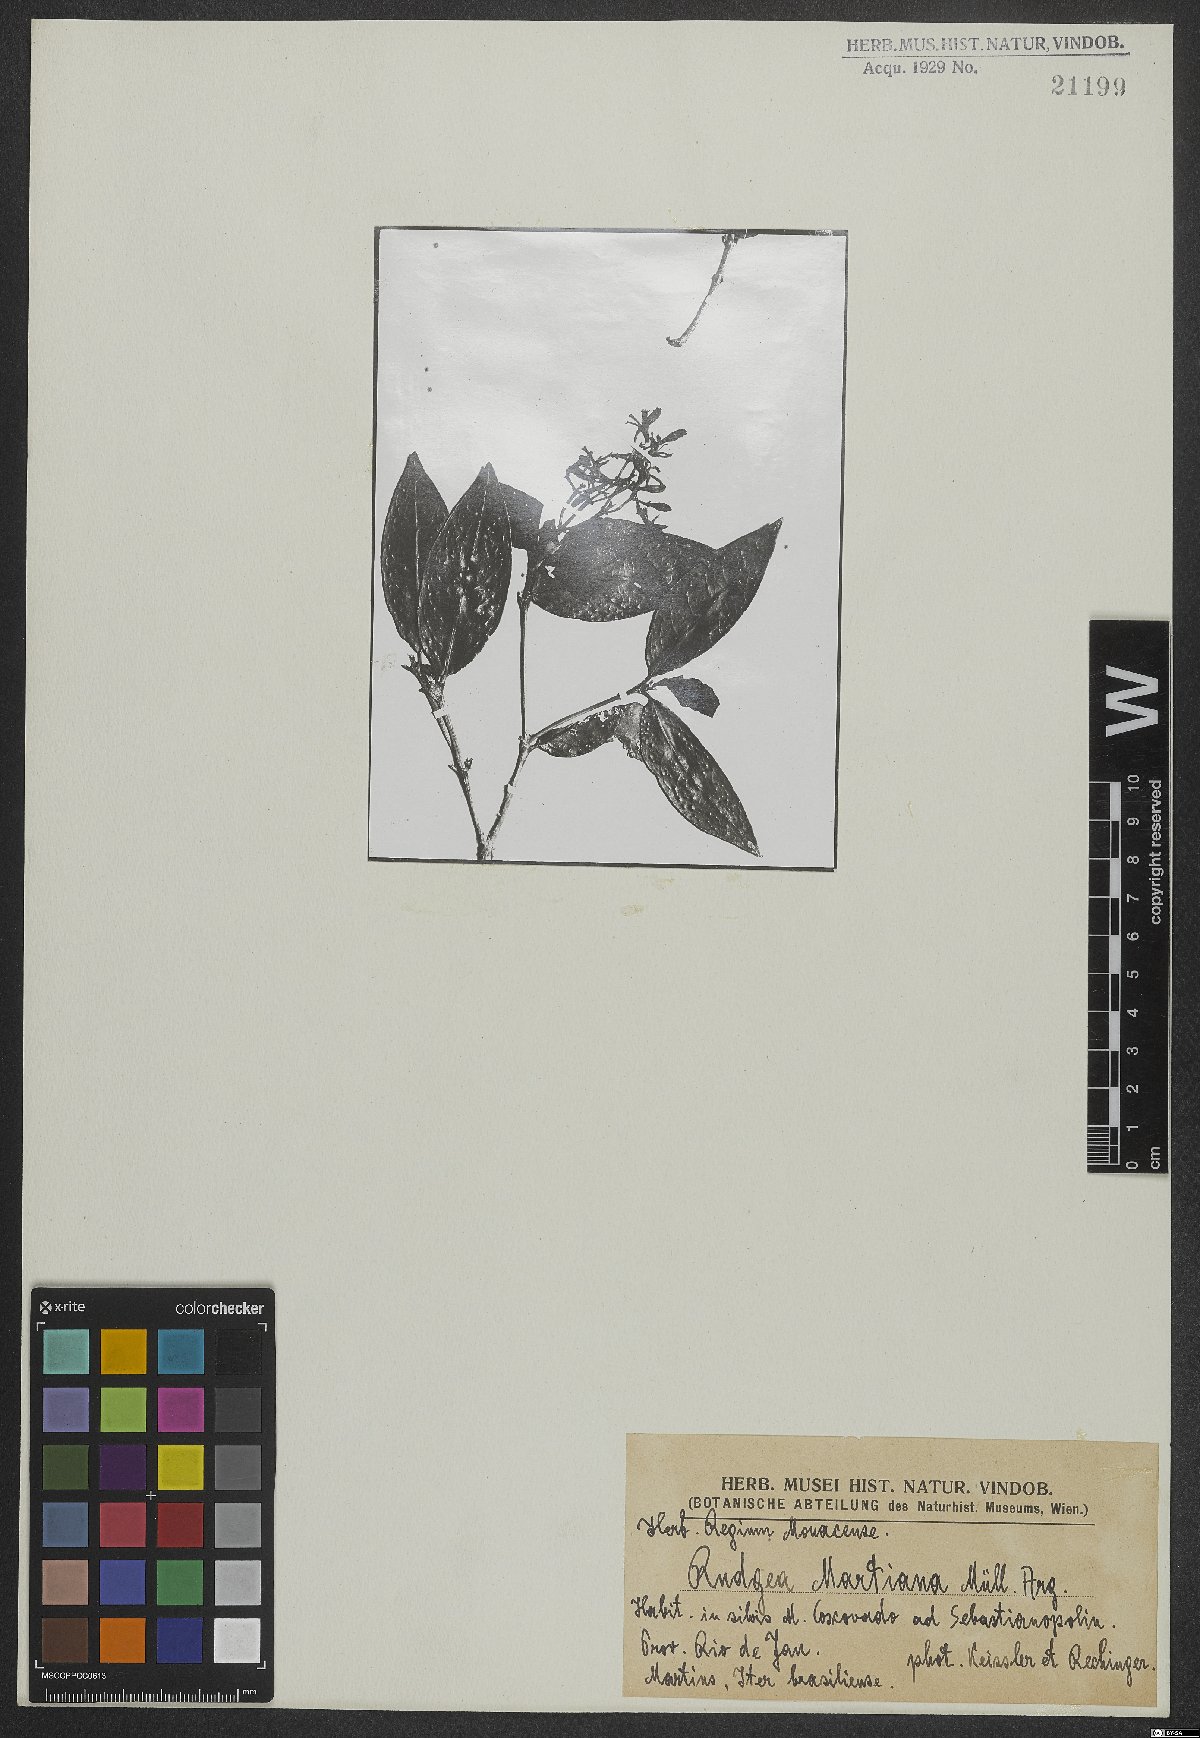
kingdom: Plantae
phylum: Tracheophyta
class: Magnoliopsida
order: Gentianales
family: Rubiaceae
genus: Rudgea
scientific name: Rudgea minor
